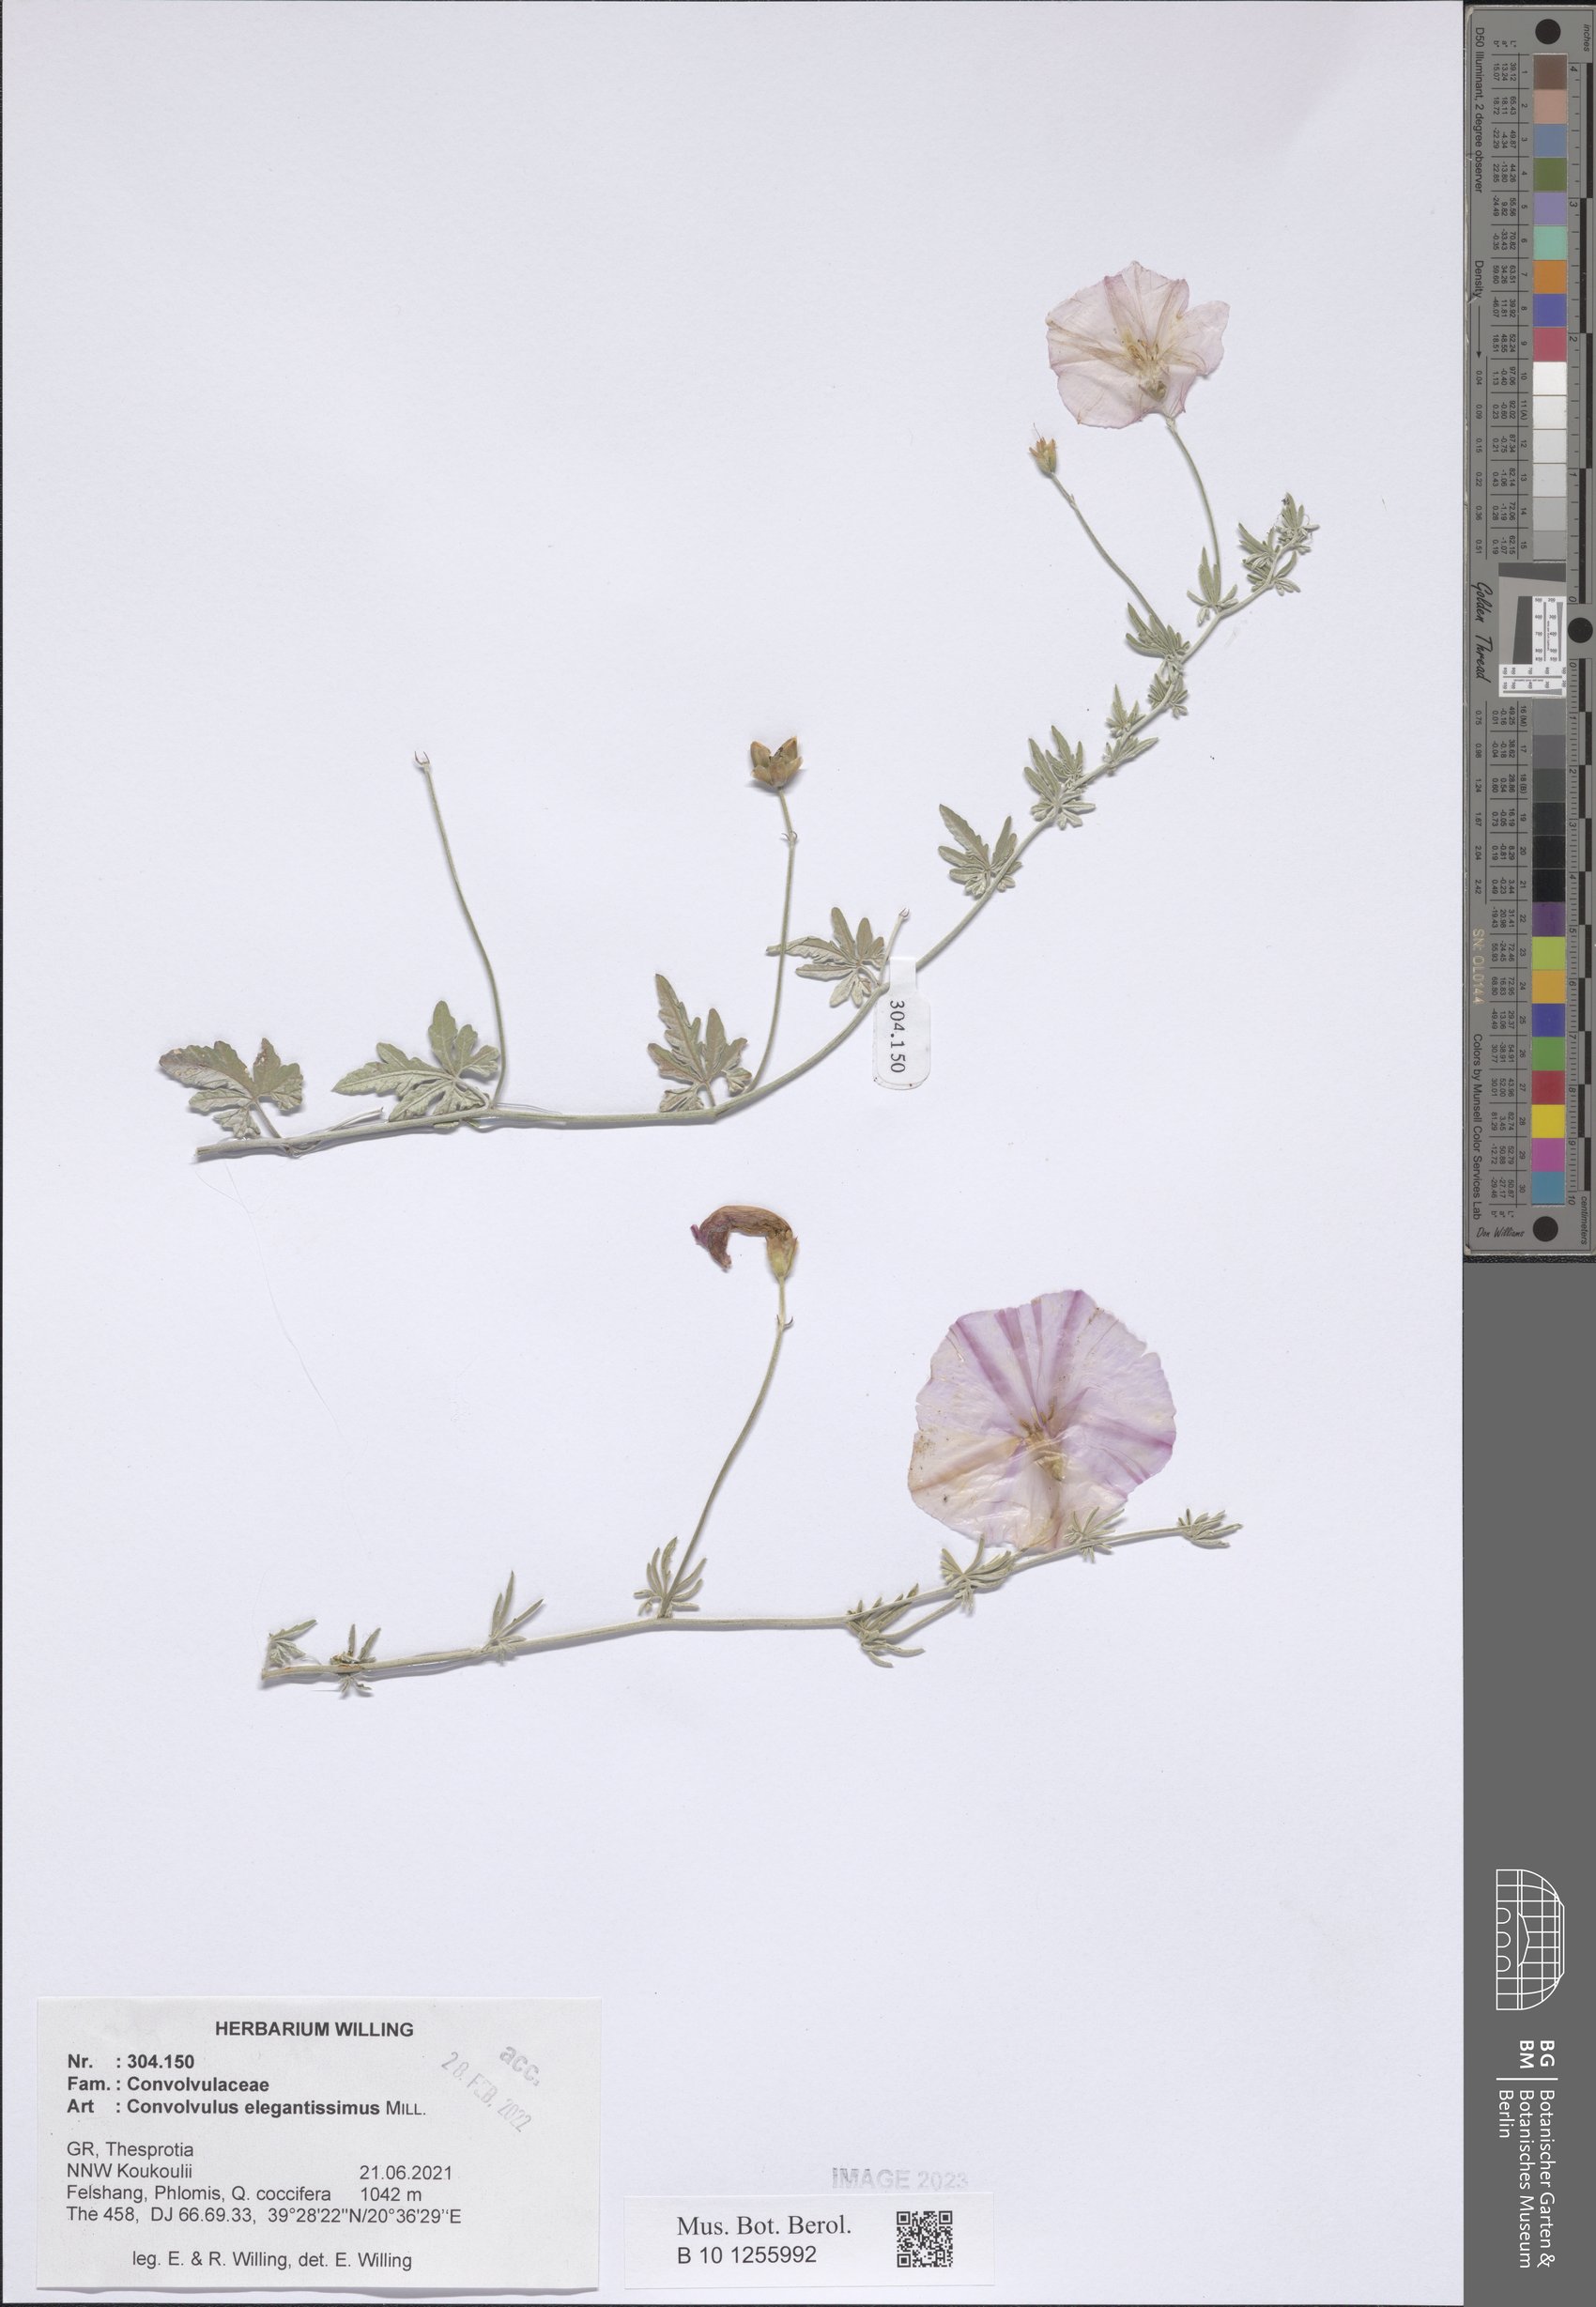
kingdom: Plantae
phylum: Tracheophyta
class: Magnoliopsida
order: Solanales
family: Convolvulaceae
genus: Convolvulus
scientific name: Convolvulus elegantissimus
